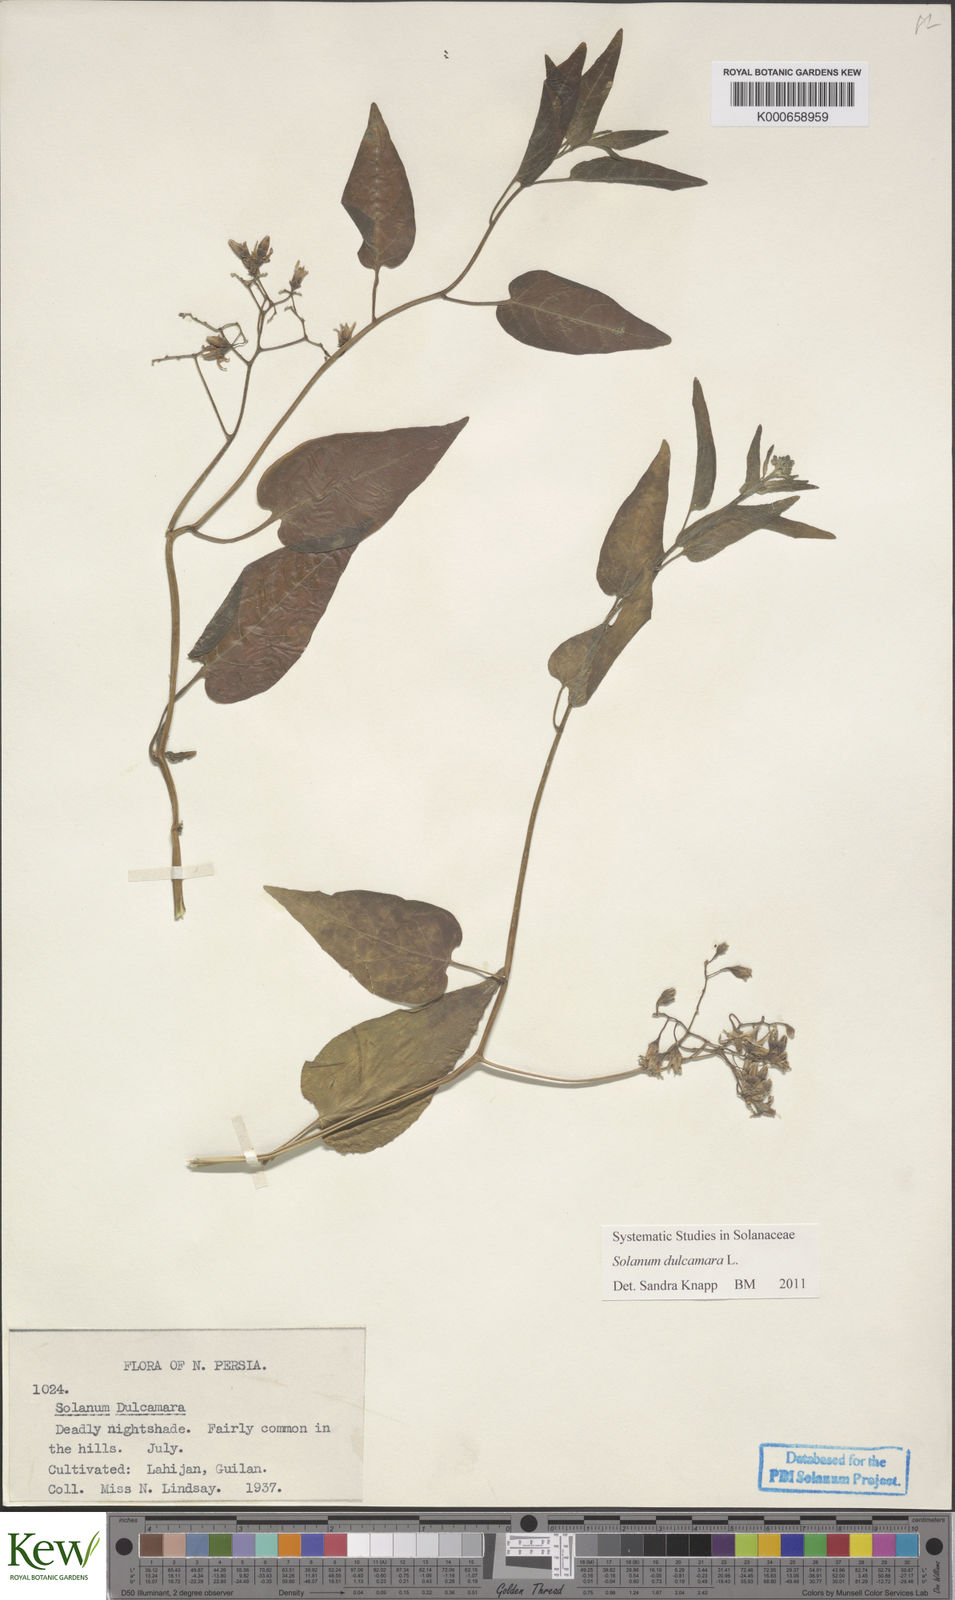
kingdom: Plantae
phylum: Tracheophyta
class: Magnoliopsida
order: Solanales
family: Solanaceae
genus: Solanum
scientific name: Solanum dulcamara
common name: Climbing nightshade
